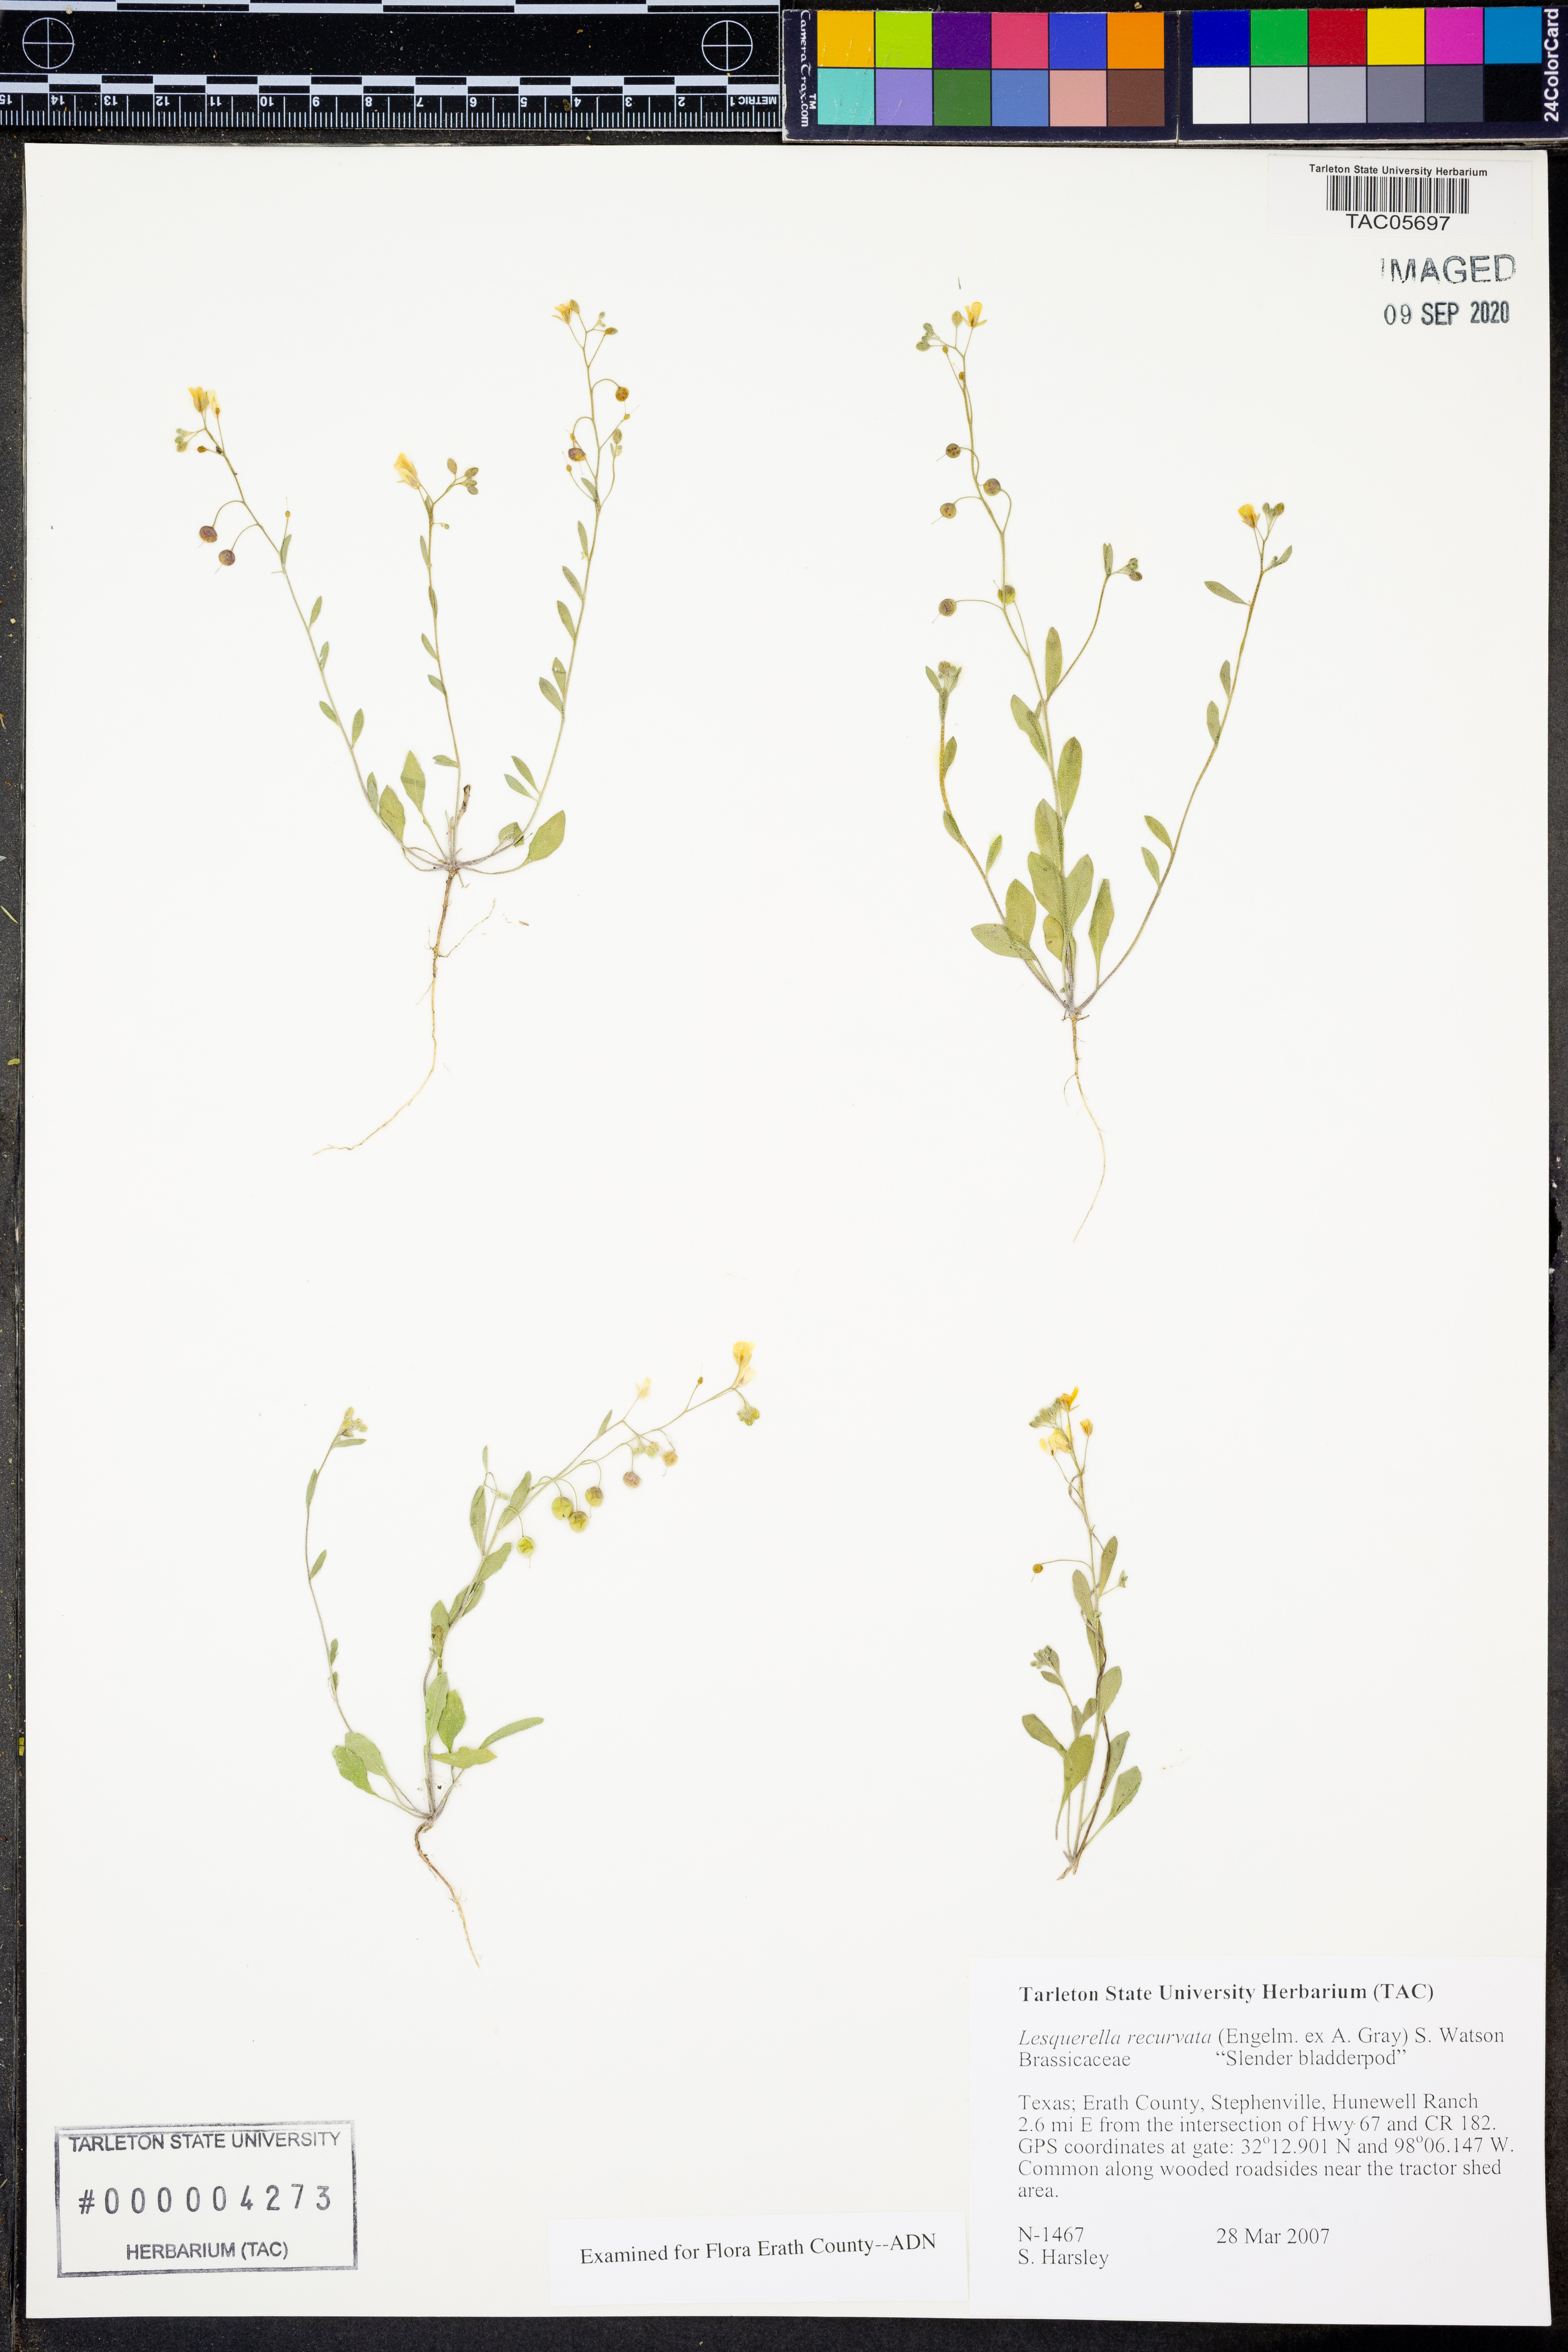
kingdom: Plantae
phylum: Tracheophyta
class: Magnoliopsida
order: Brassicales
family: Brassicaceae
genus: Physaria
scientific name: Physaria recurvata
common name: Gaslight bladderpod
